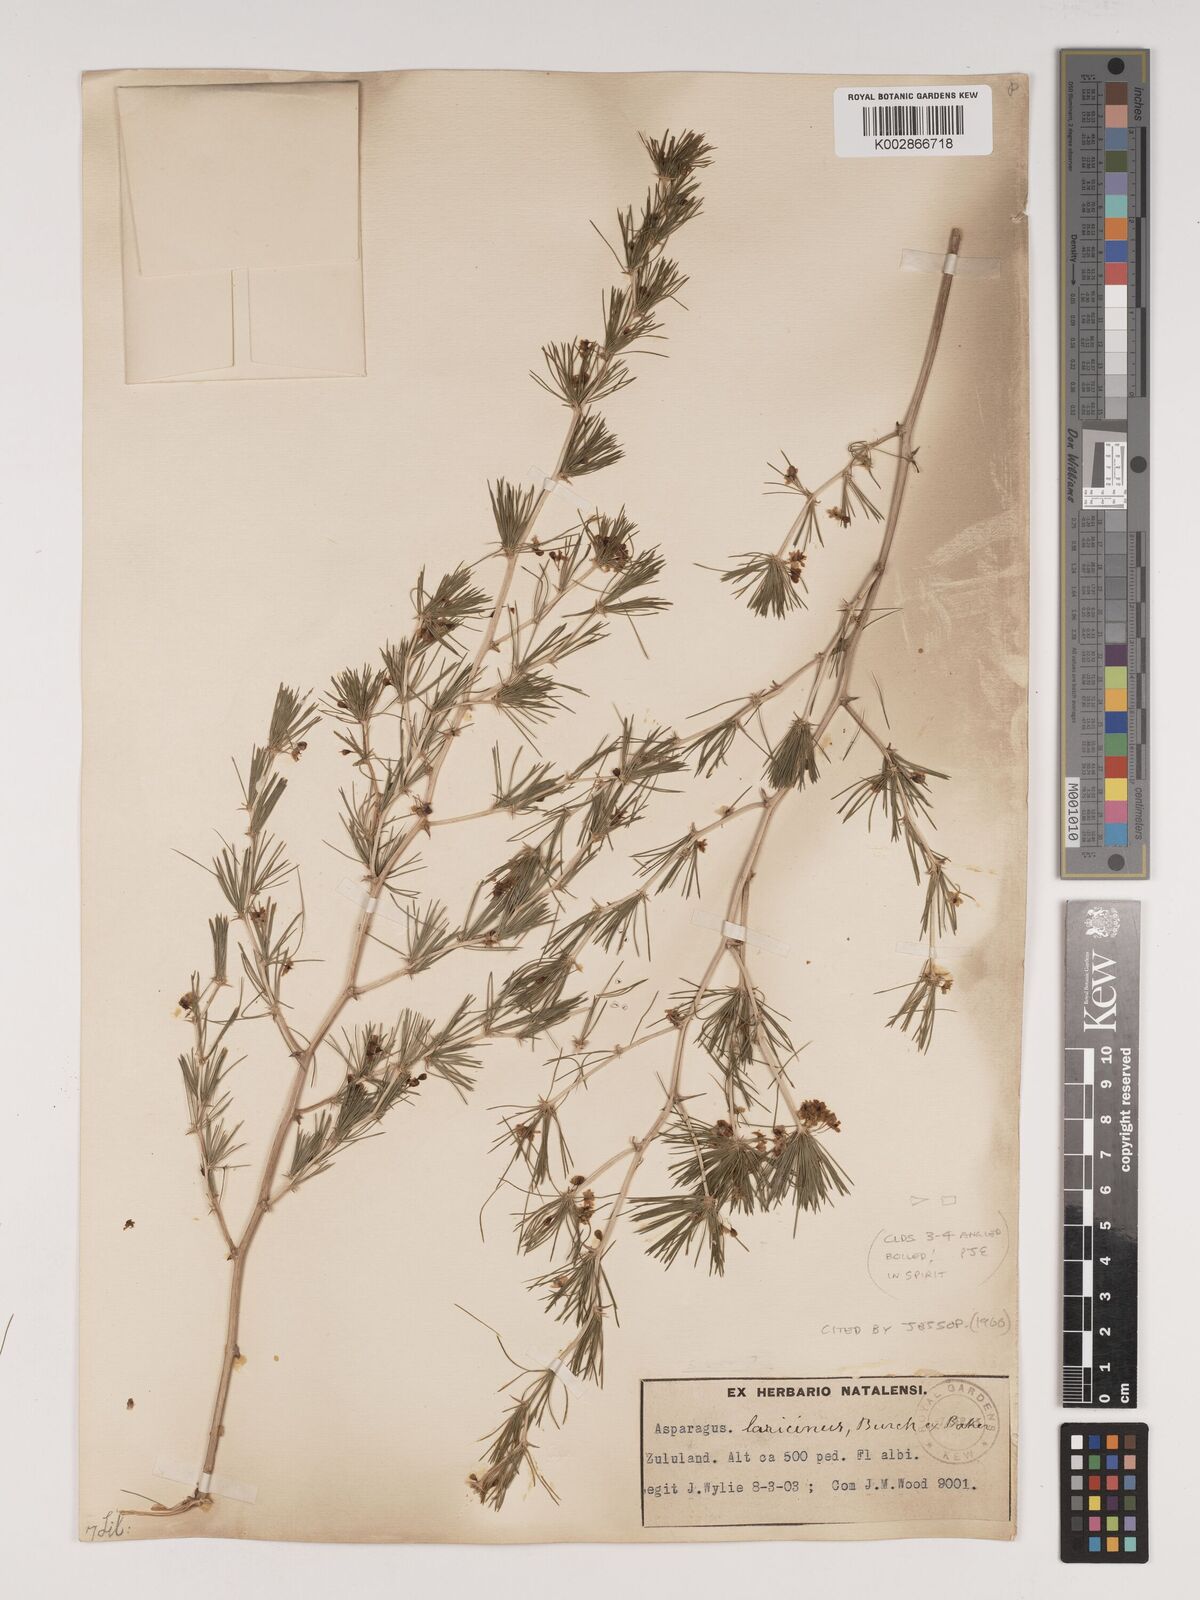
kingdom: Plantae
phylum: Tracheophyta
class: Liliopsida
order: Asparagales
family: Asparagaceae
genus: Asparagus
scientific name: Asparagus laricinus
